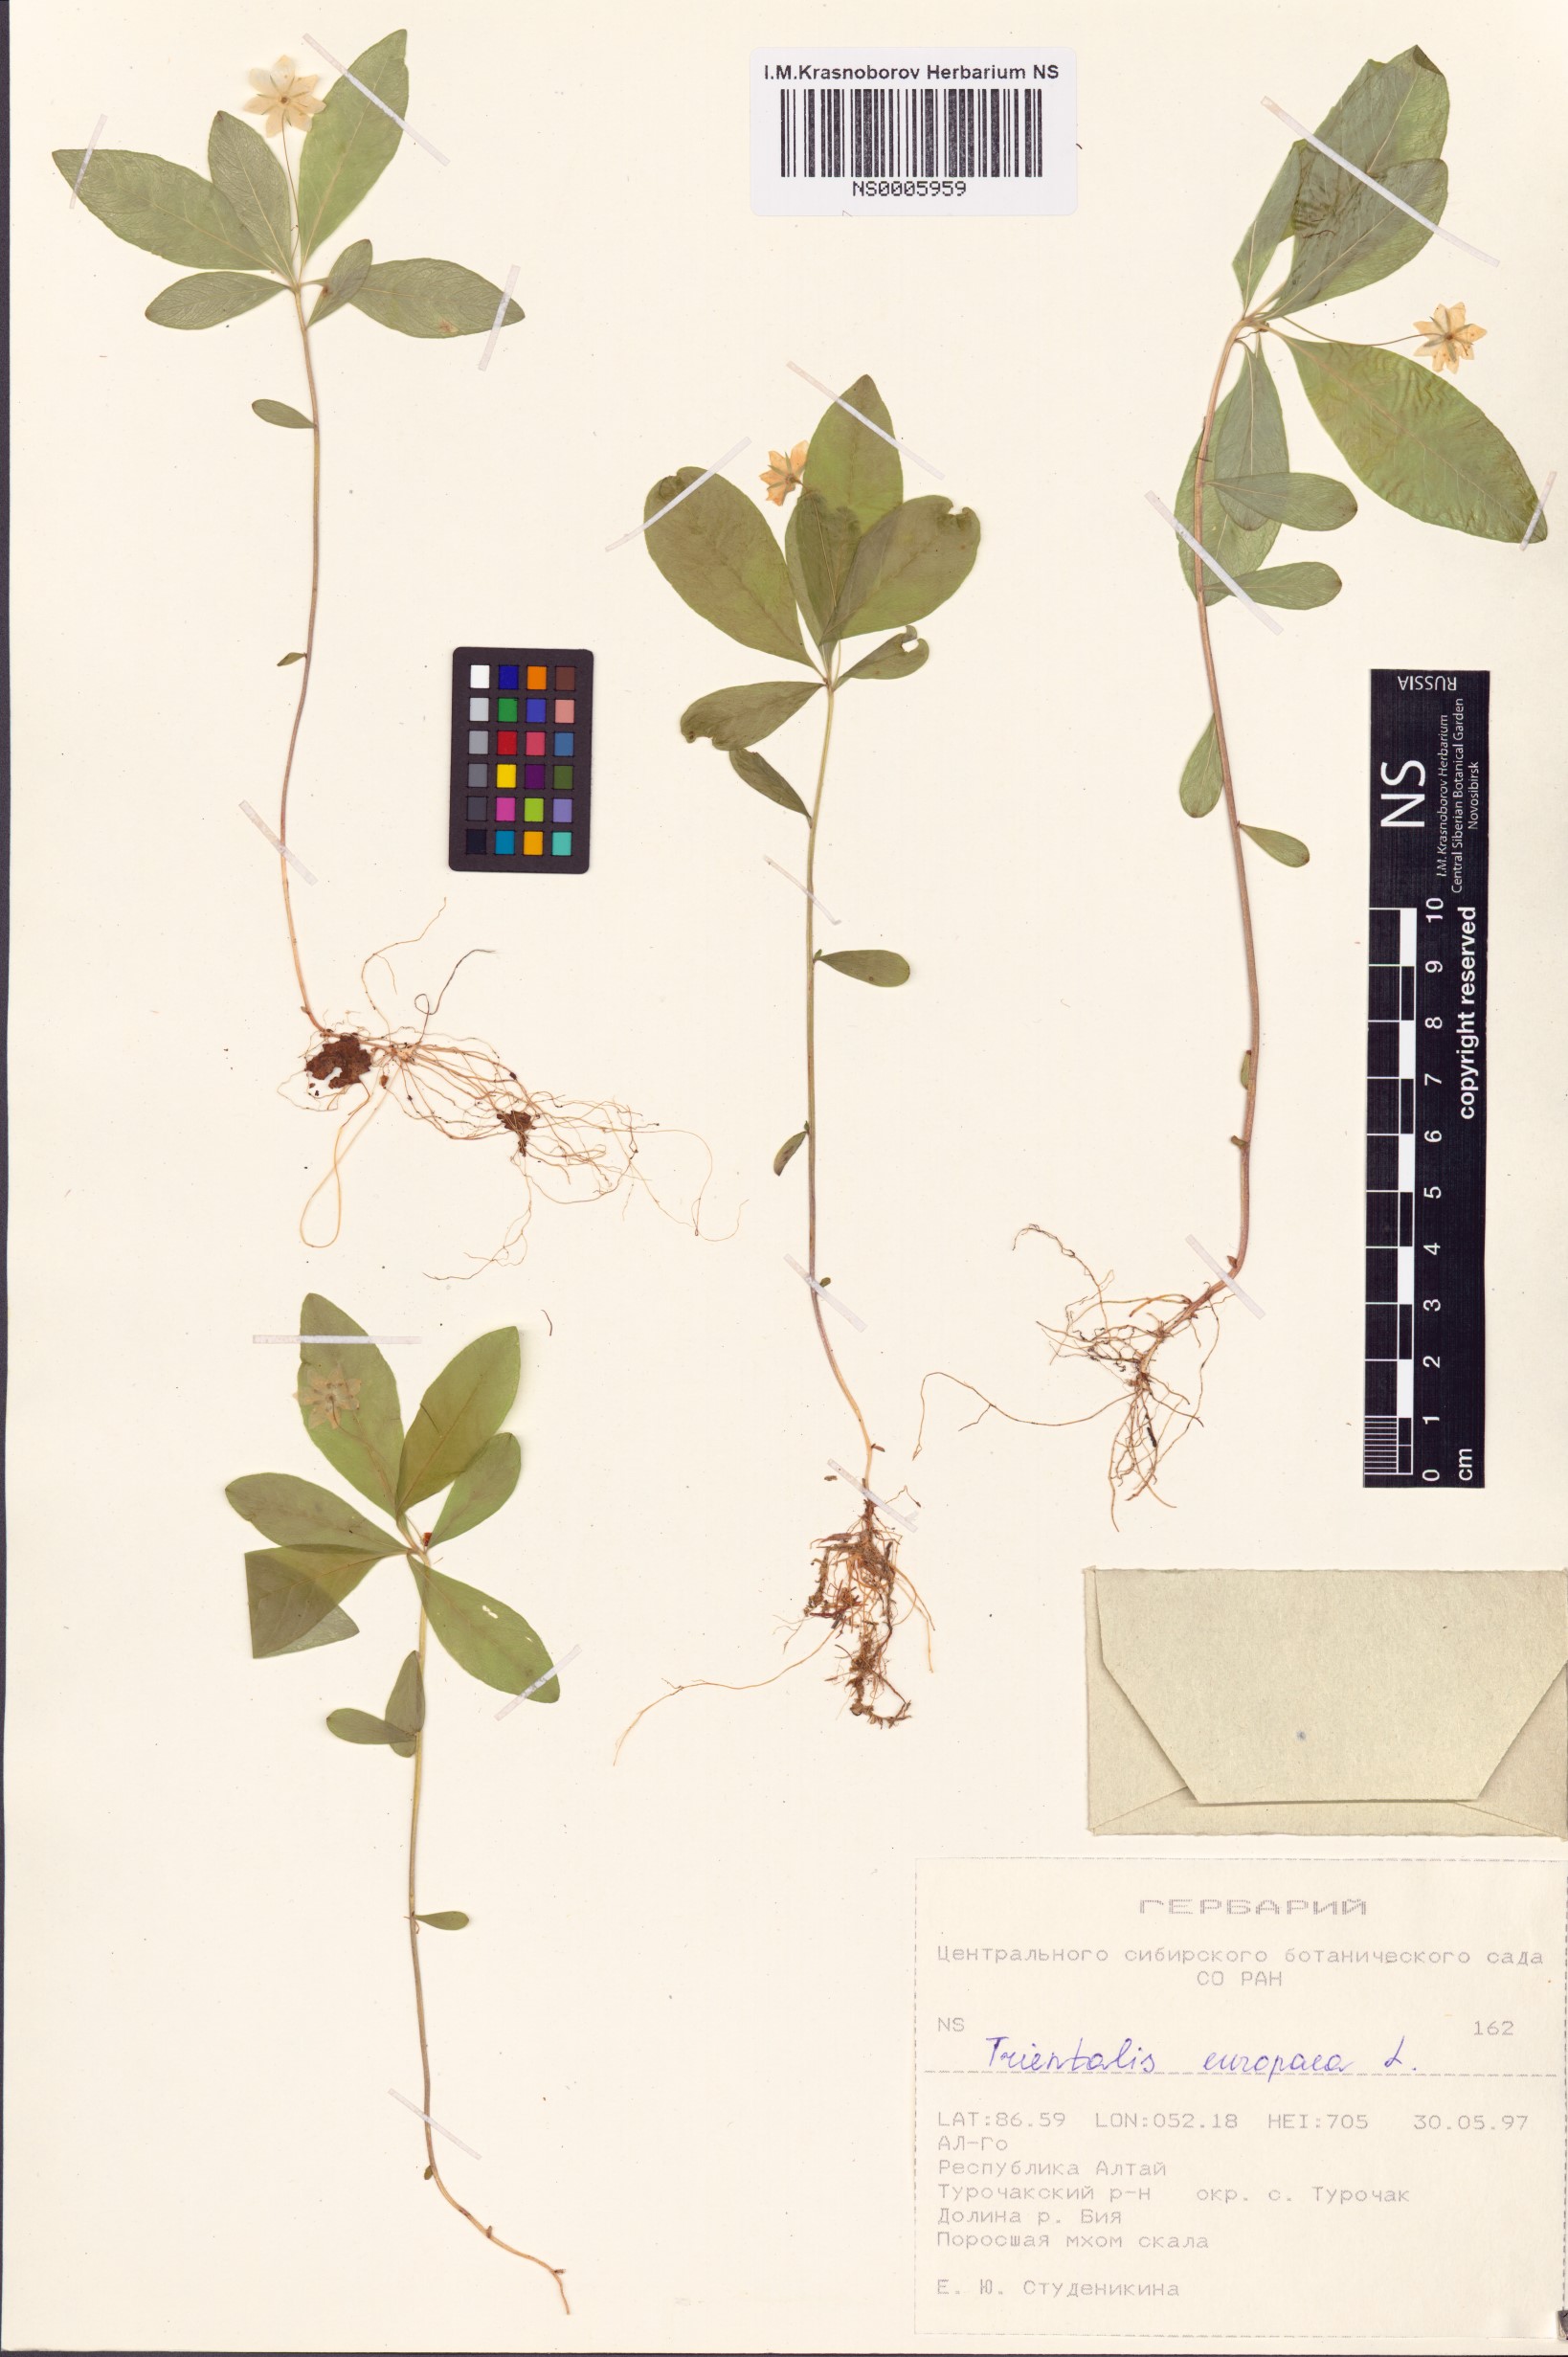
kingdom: Plantae
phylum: Tracheophyta
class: Magnoliopsida
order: Ericales
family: Primulaceae
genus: Lysimachia
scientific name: Lysimachia europaea
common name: Arctic starflower
